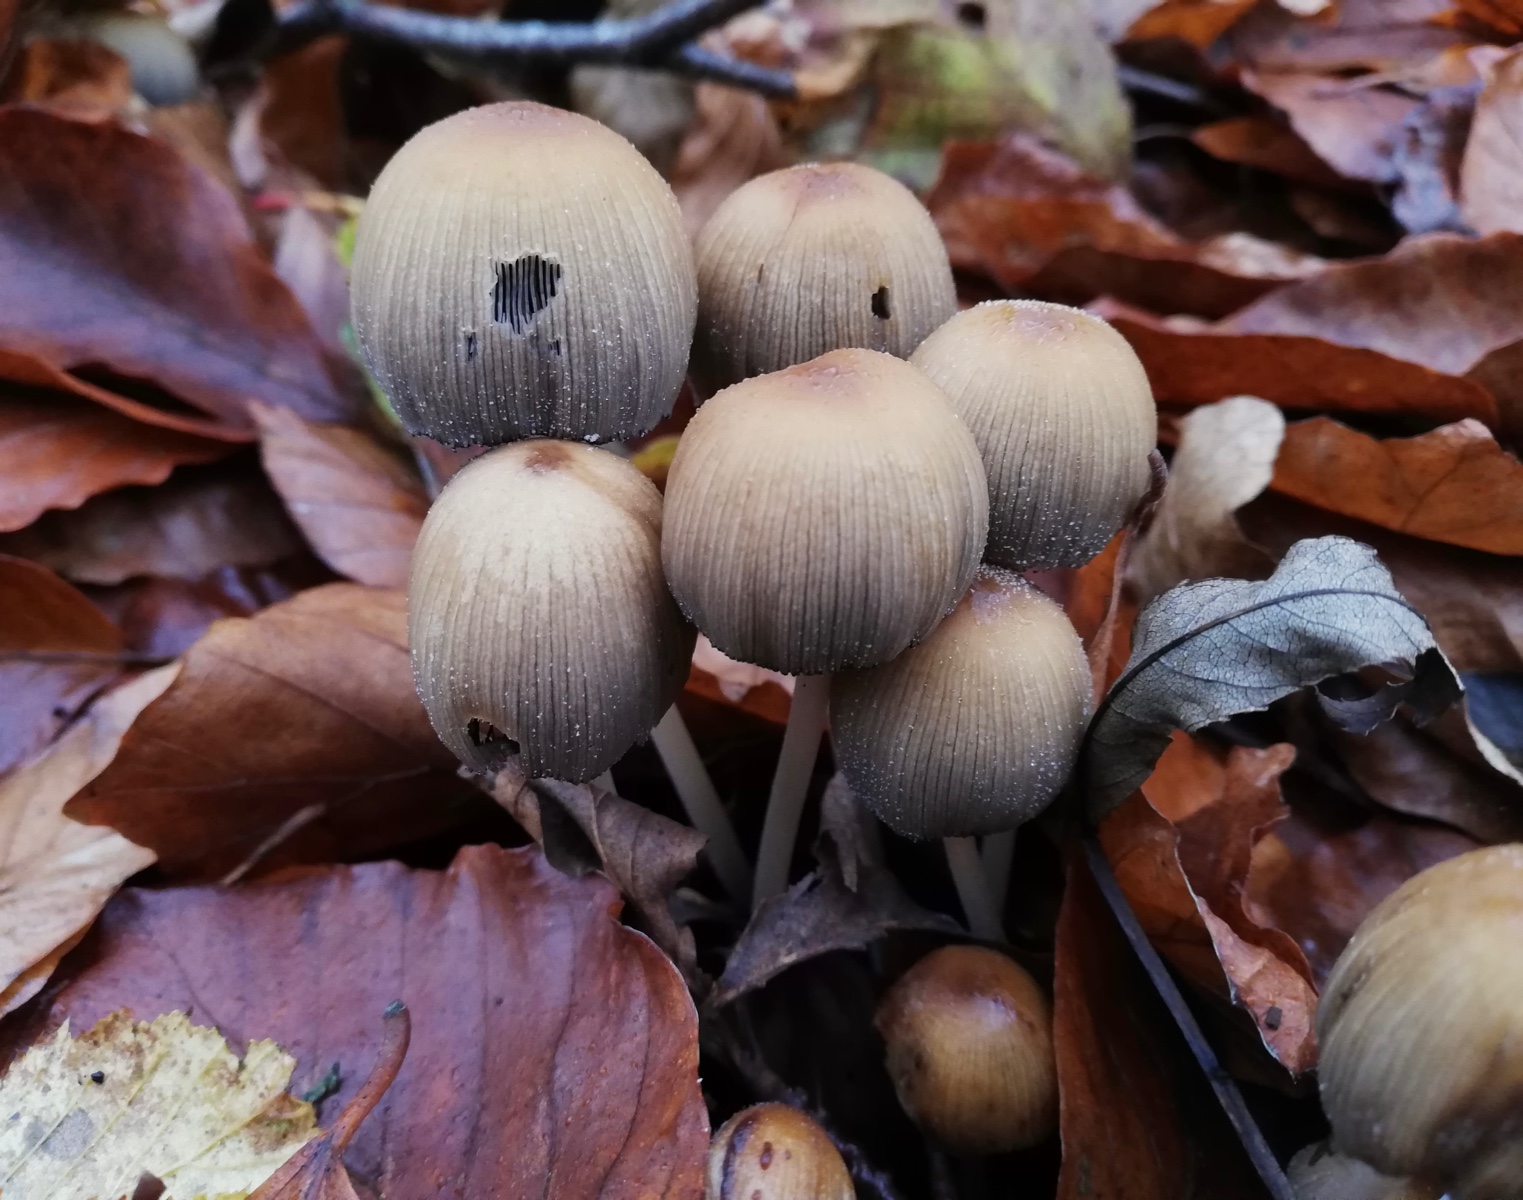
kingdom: Fungi
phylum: Basidiomycota
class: Agaricomycetes
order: Agaricales
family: Psathyrellaceae
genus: Coprinellus
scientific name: Coprinellus micaceus
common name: glimmer-blækhat
